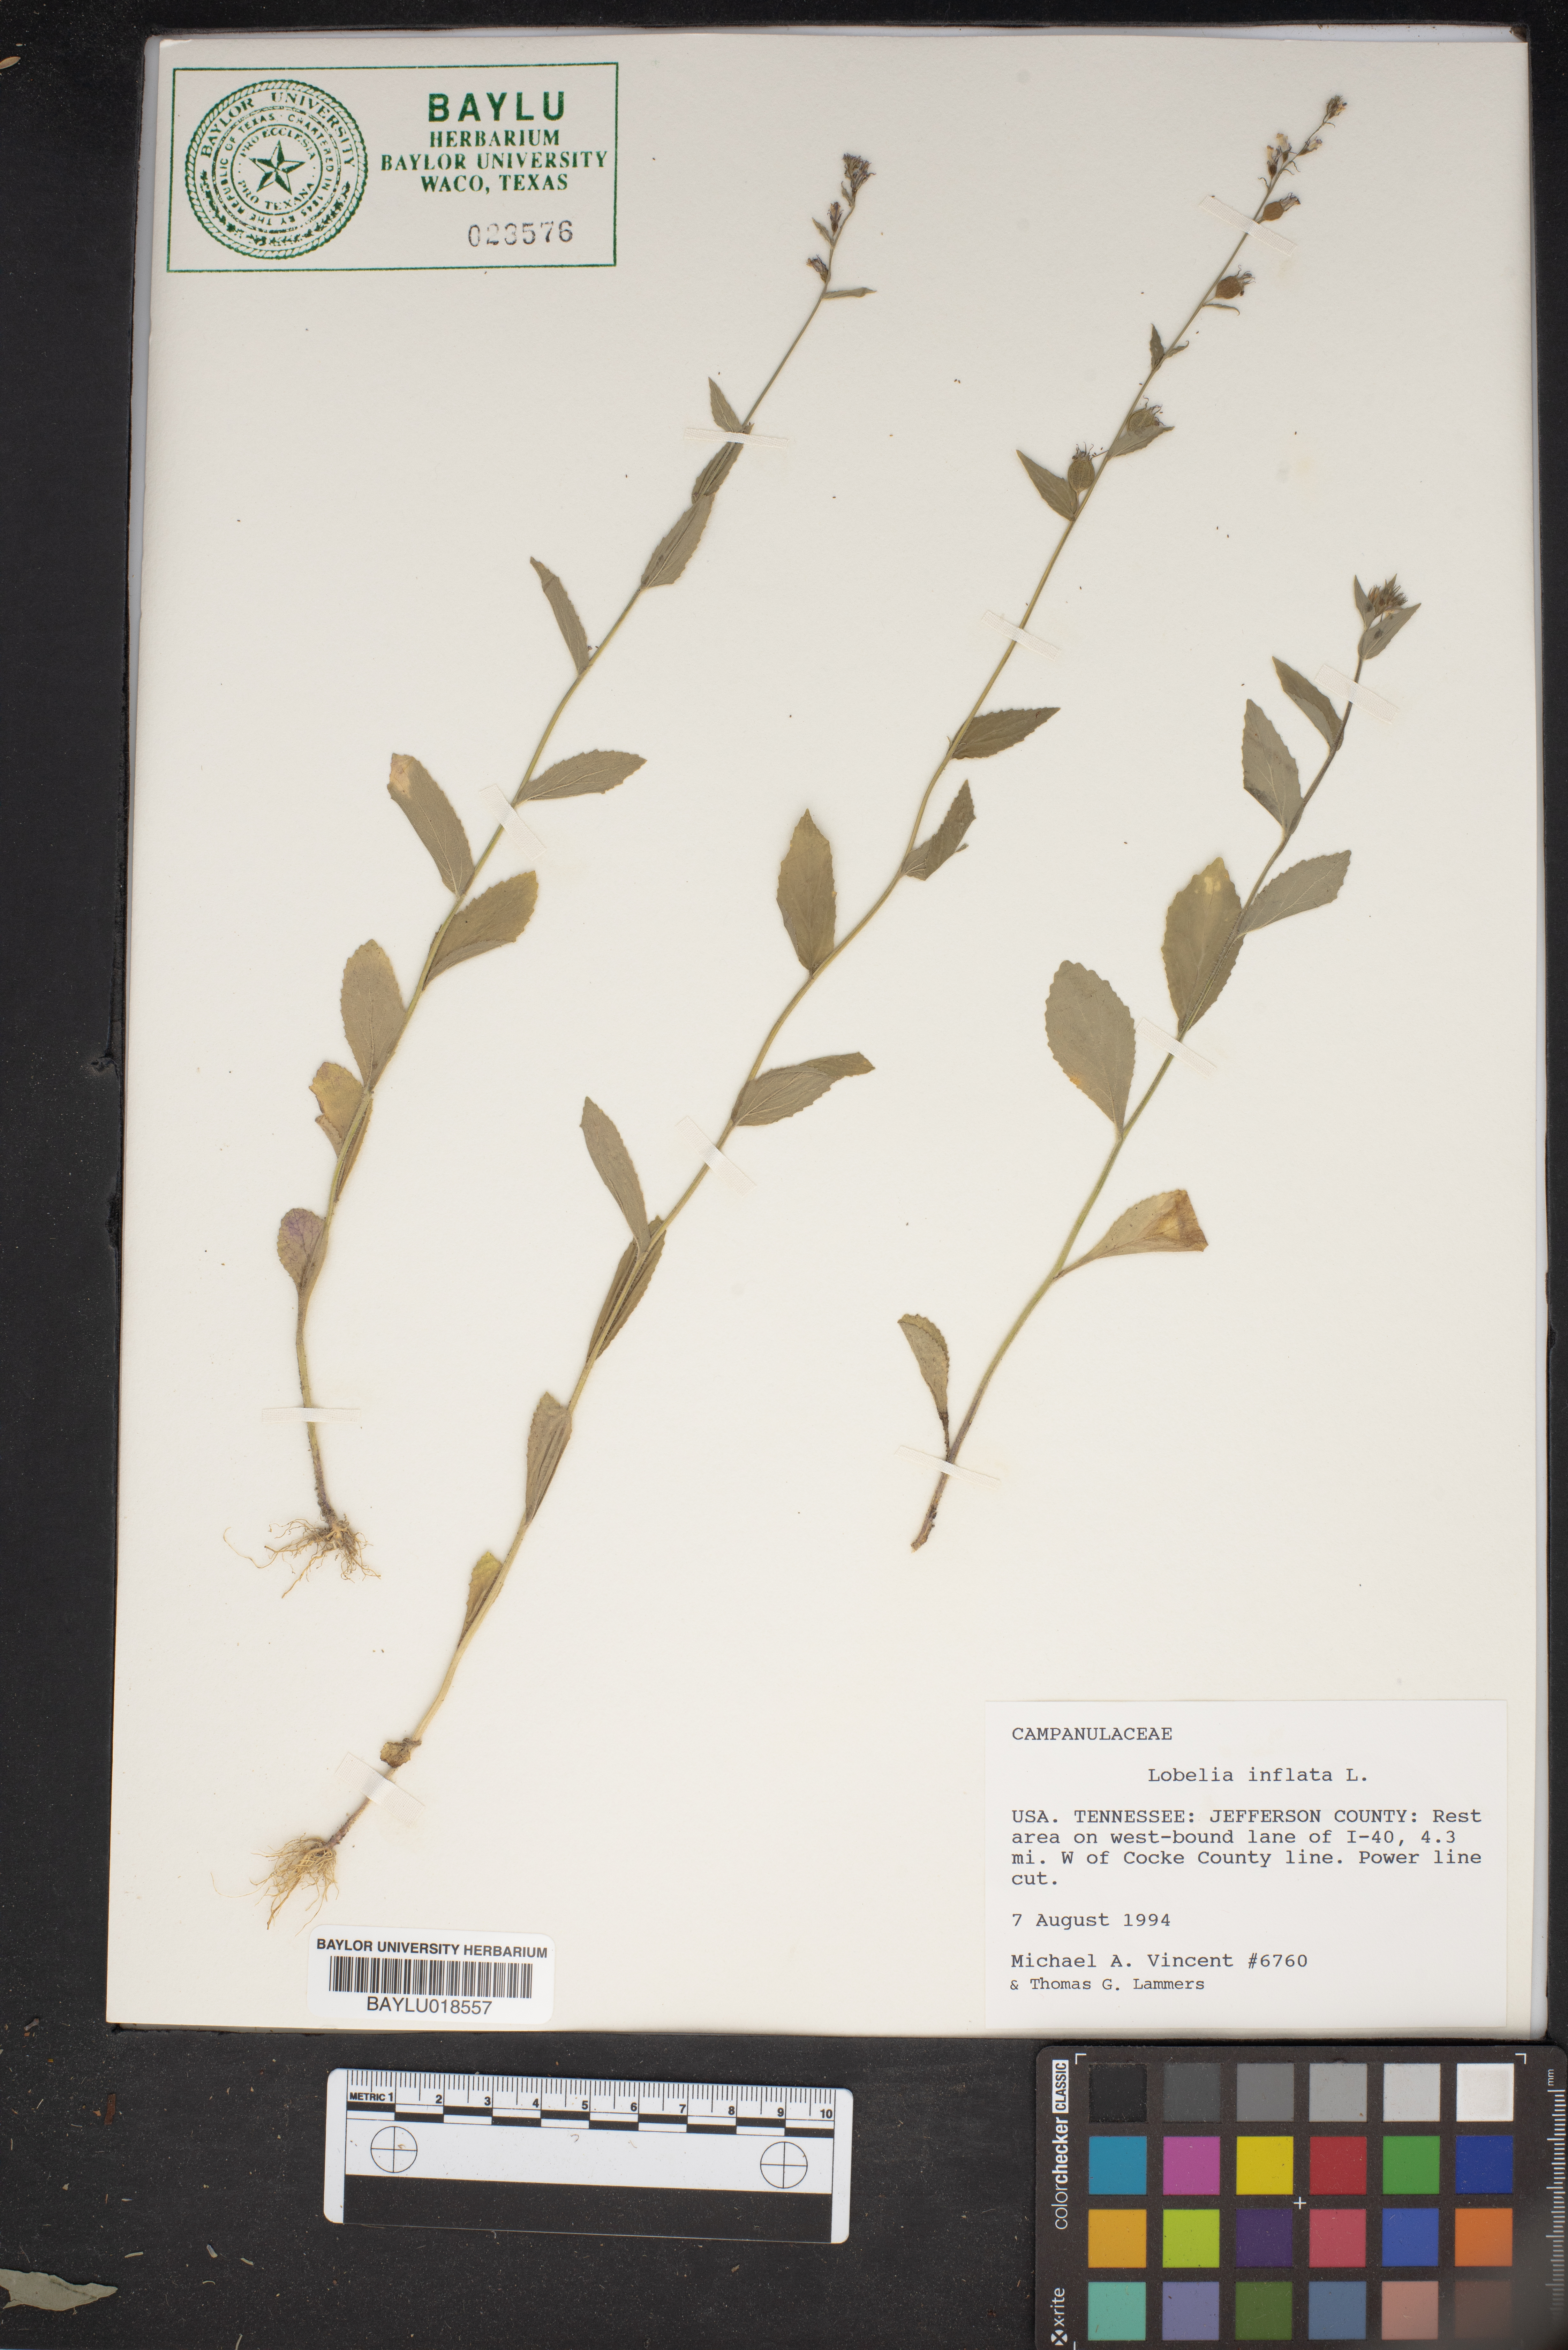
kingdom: Plantae
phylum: Tracheophyta
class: Magnoliopsida
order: Asterales
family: Campanulaceae
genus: Lobelia
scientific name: Lobelia inflata
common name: Indian tobacco
